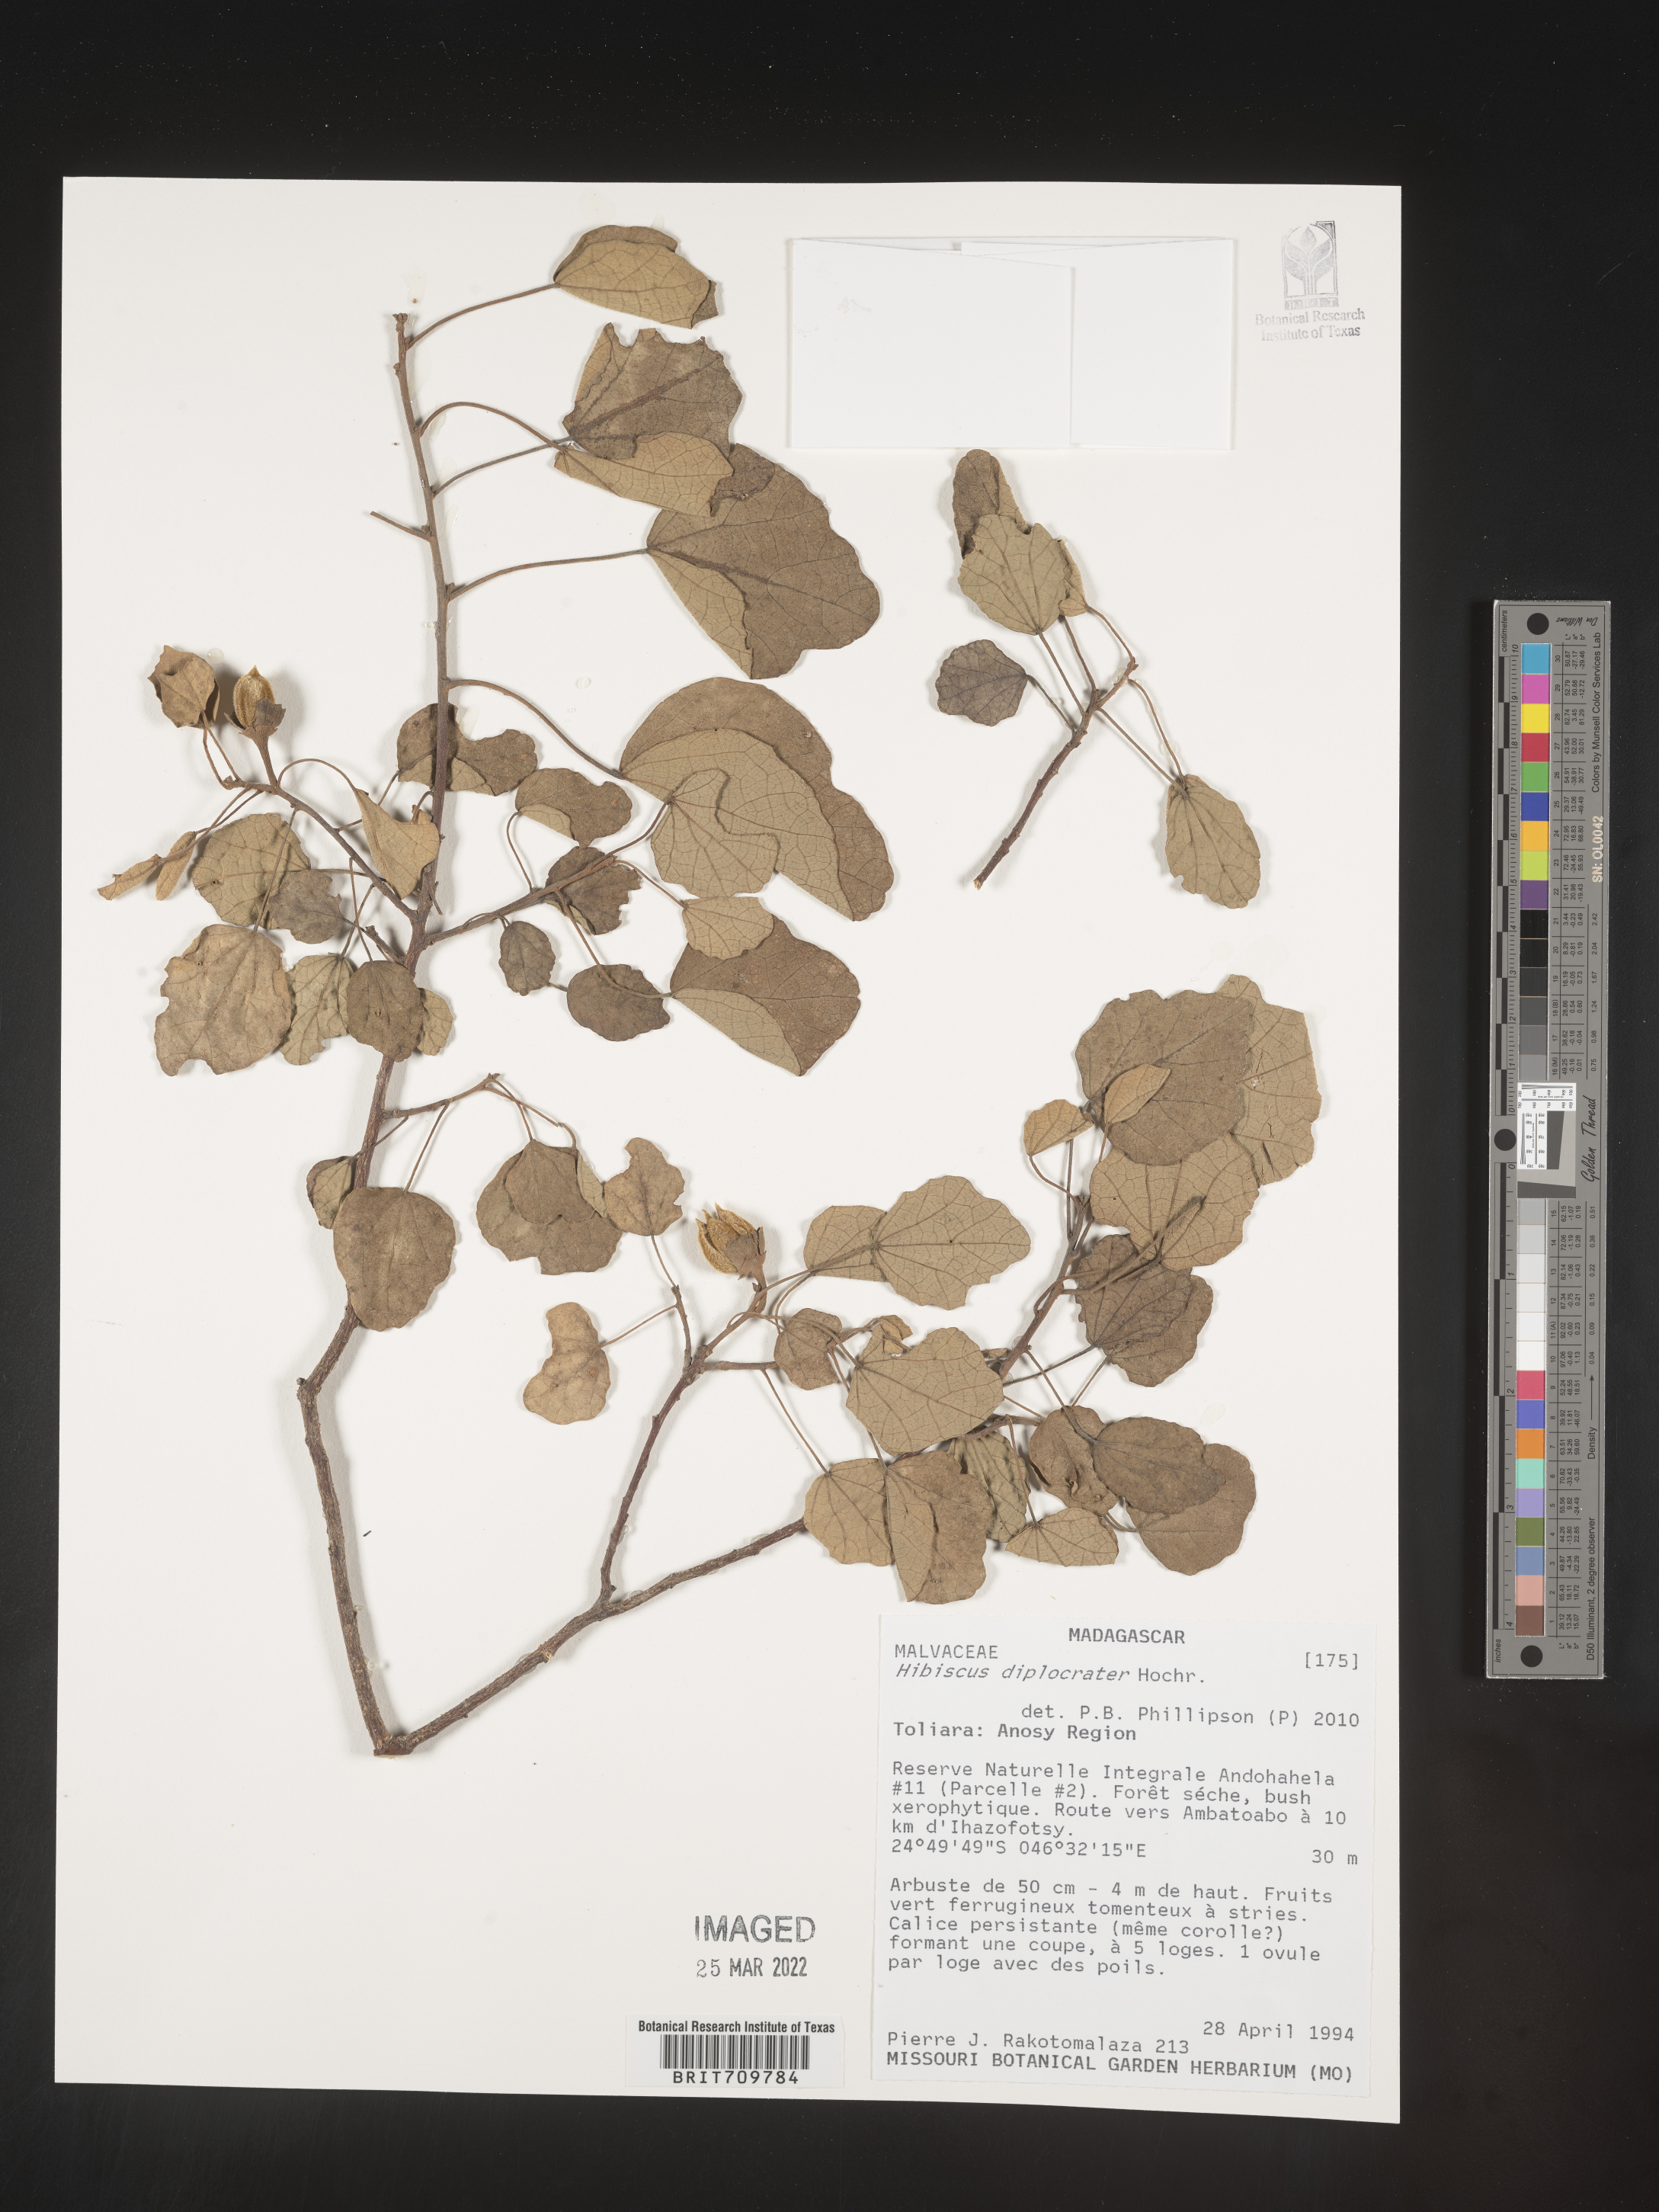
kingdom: Plantae
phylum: Tracheophyta
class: Magnoliopsida
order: Malvales
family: Malvaceae
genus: Hibiscus
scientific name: Hibiscus
